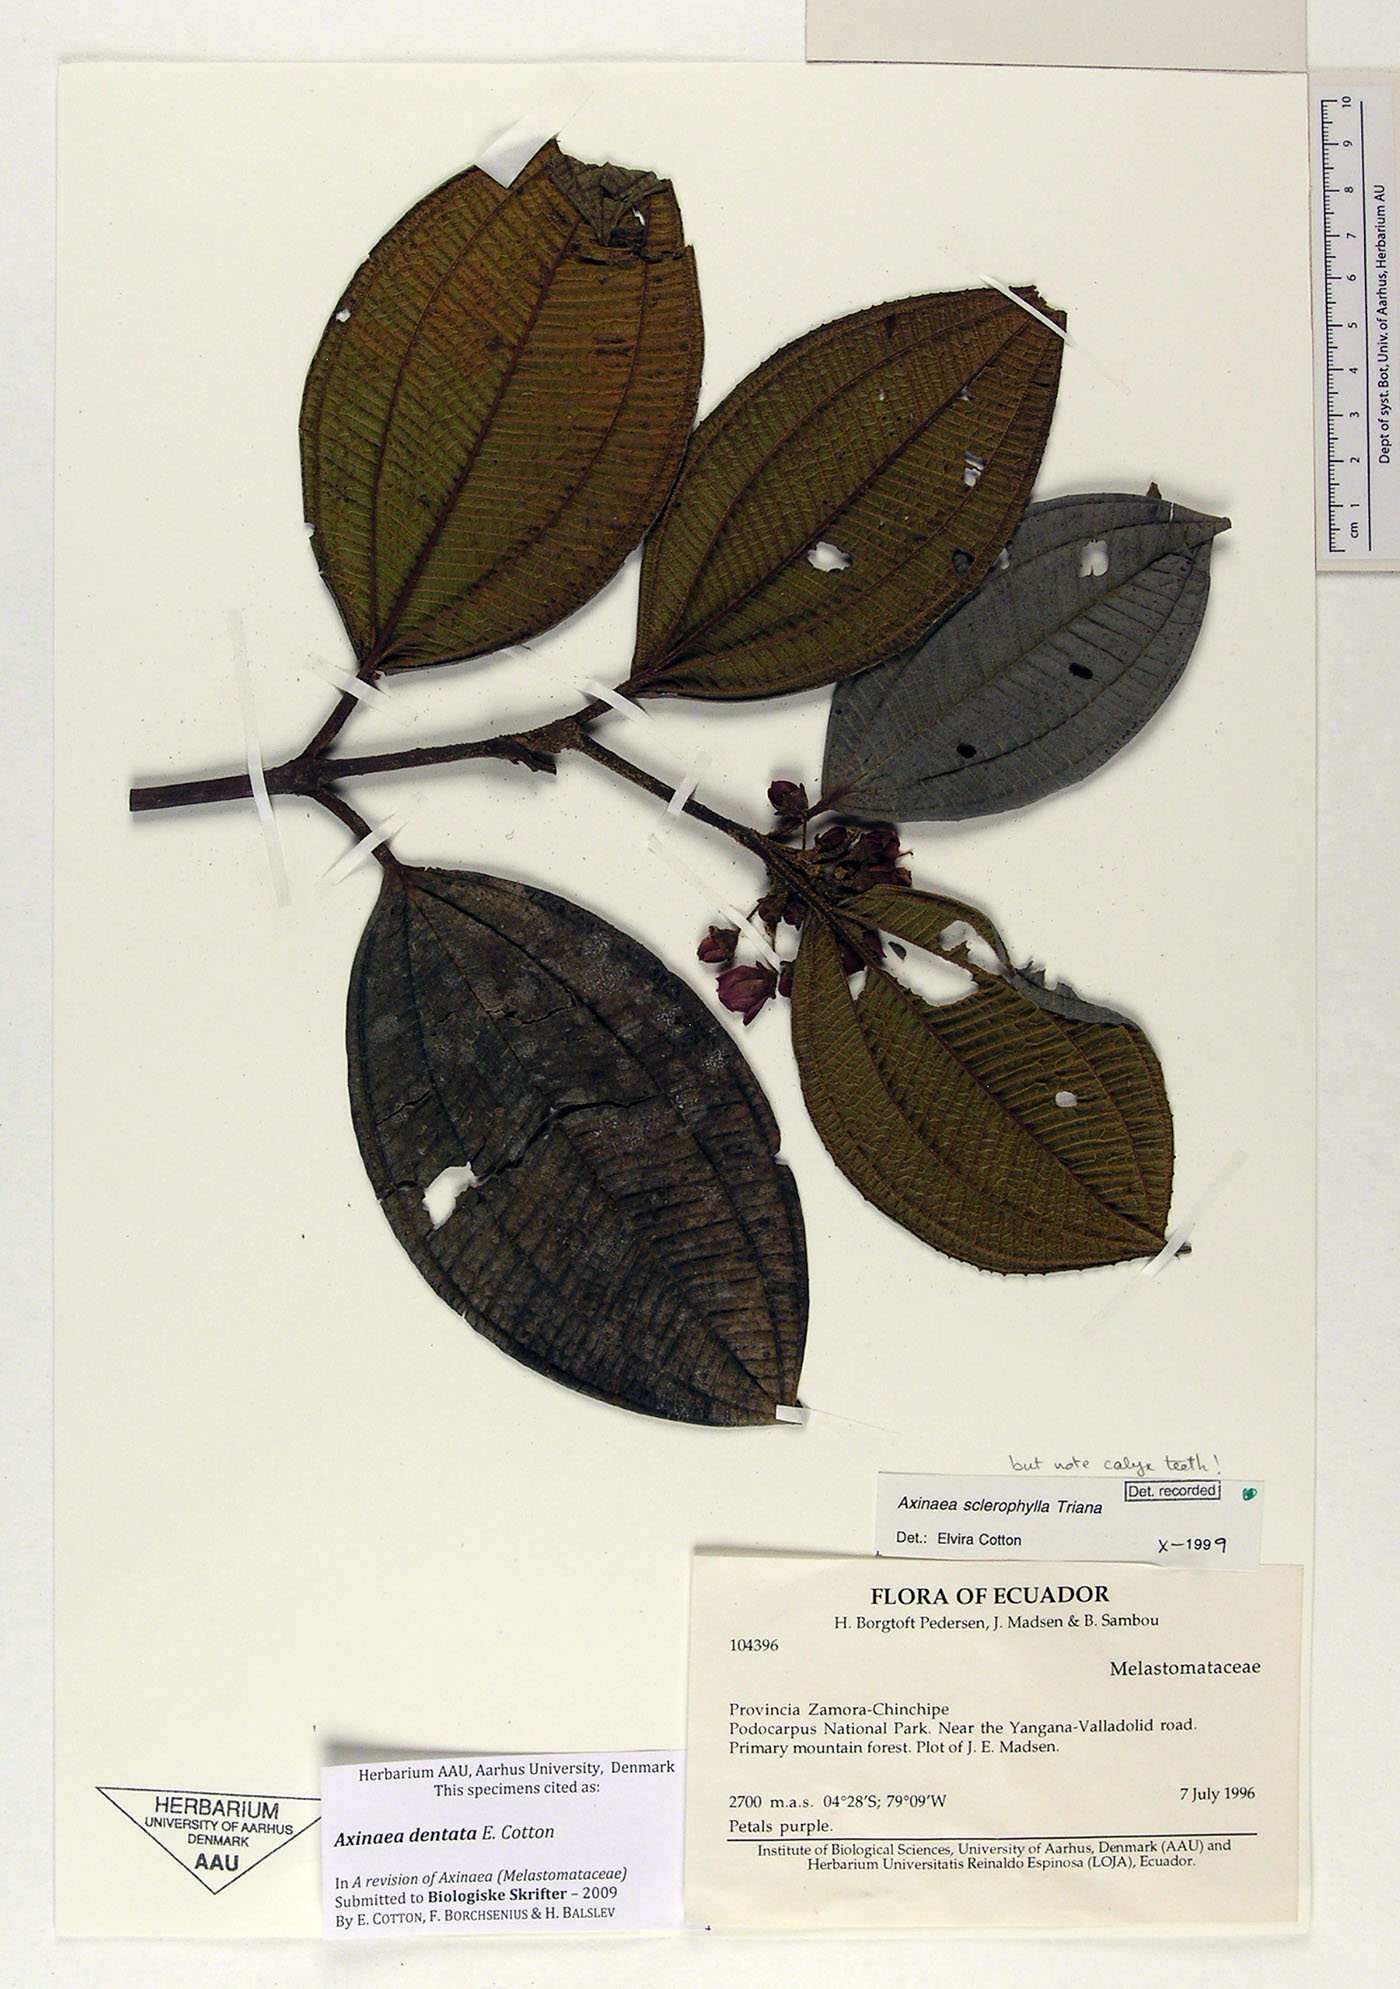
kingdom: Plantae
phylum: Tracheophyta
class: Magnoliopsida
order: Myrtales
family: Melastomataceae
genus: Axinaea
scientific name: Axinaea dentata
